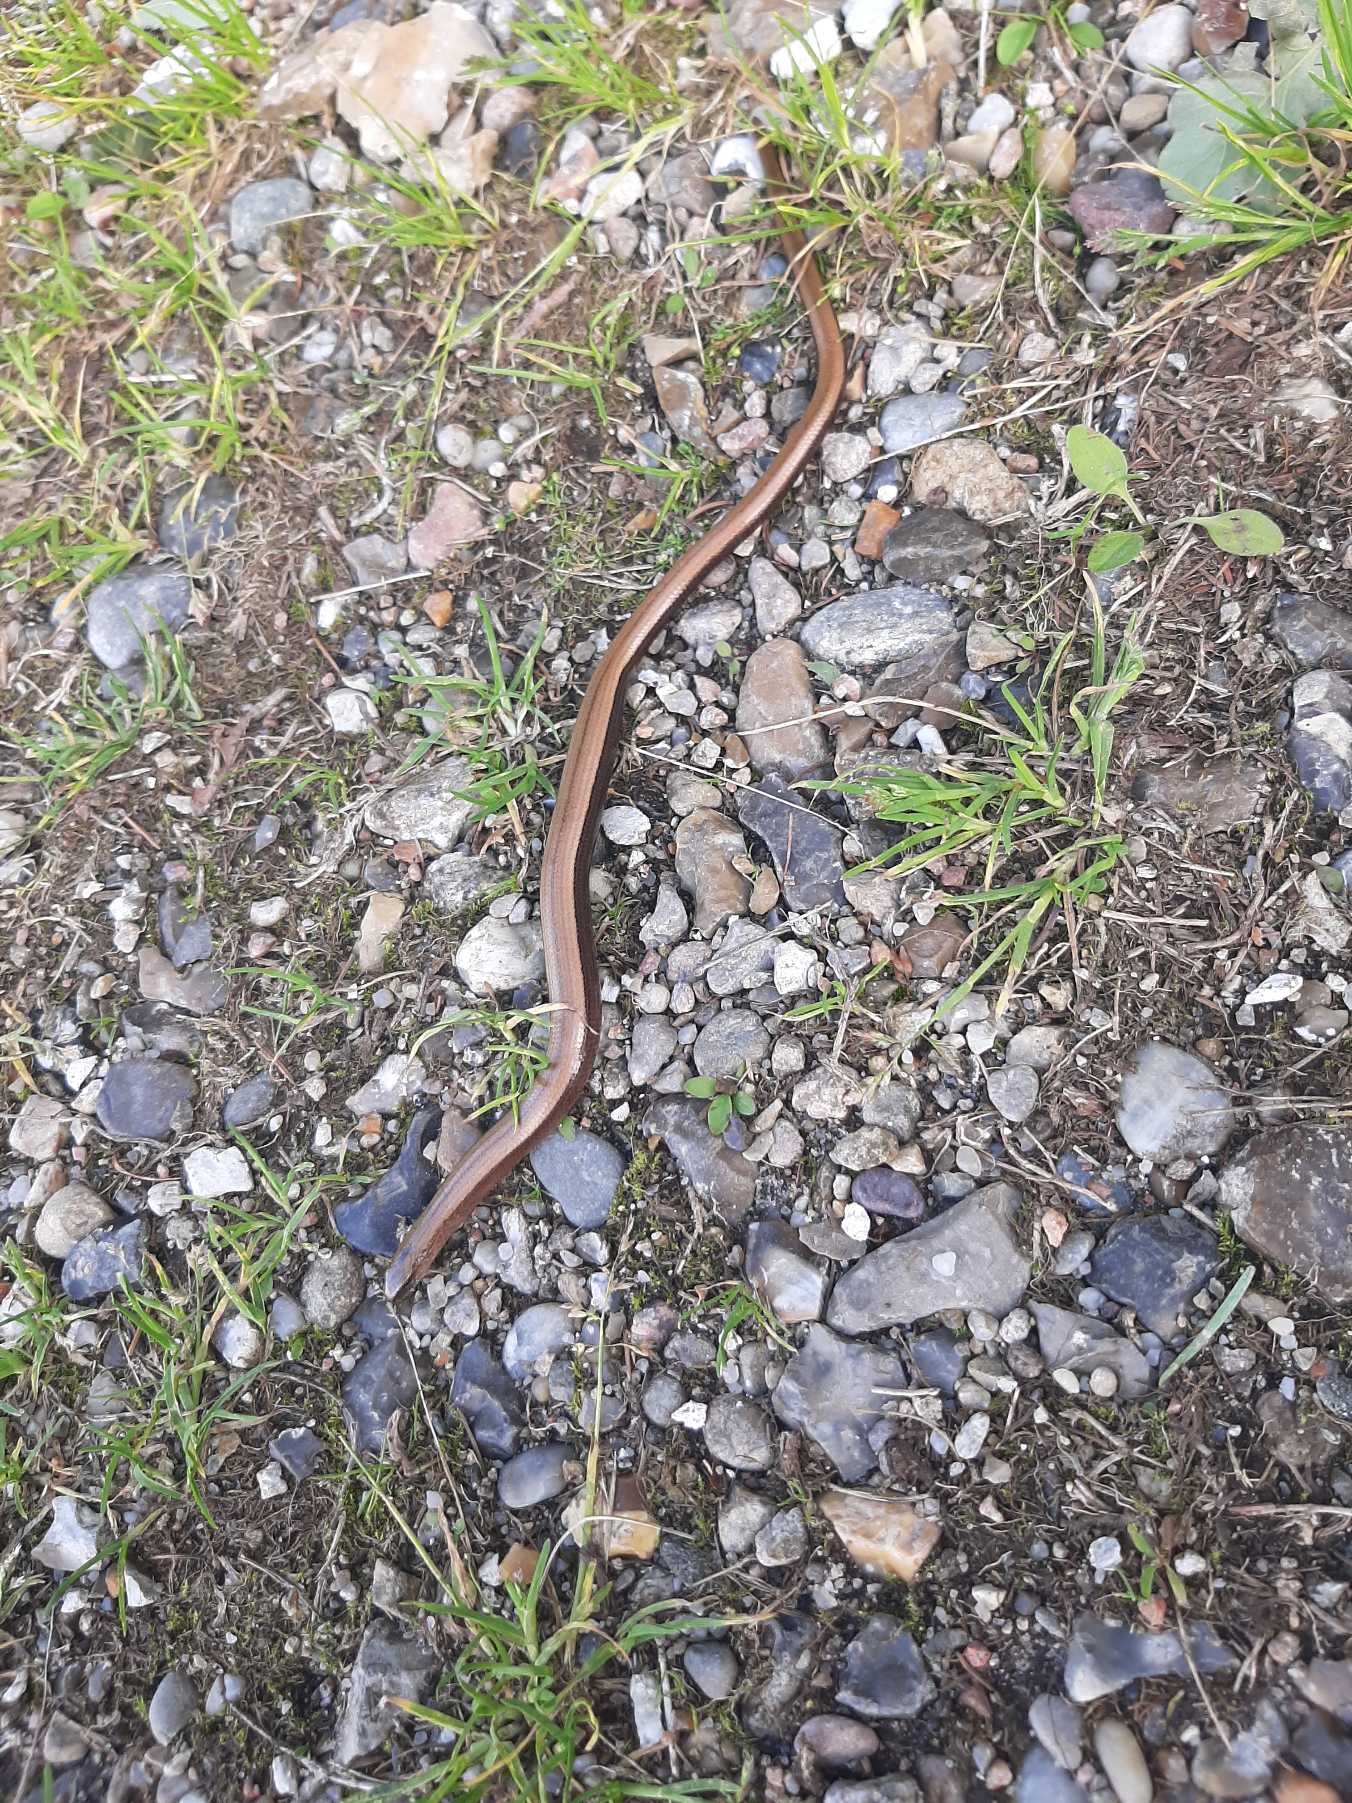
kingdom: Animalia
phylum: Chordata
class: Squamata
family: Anguidae
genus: Anguis
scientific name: Anguis fragilis
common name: Stålorm
